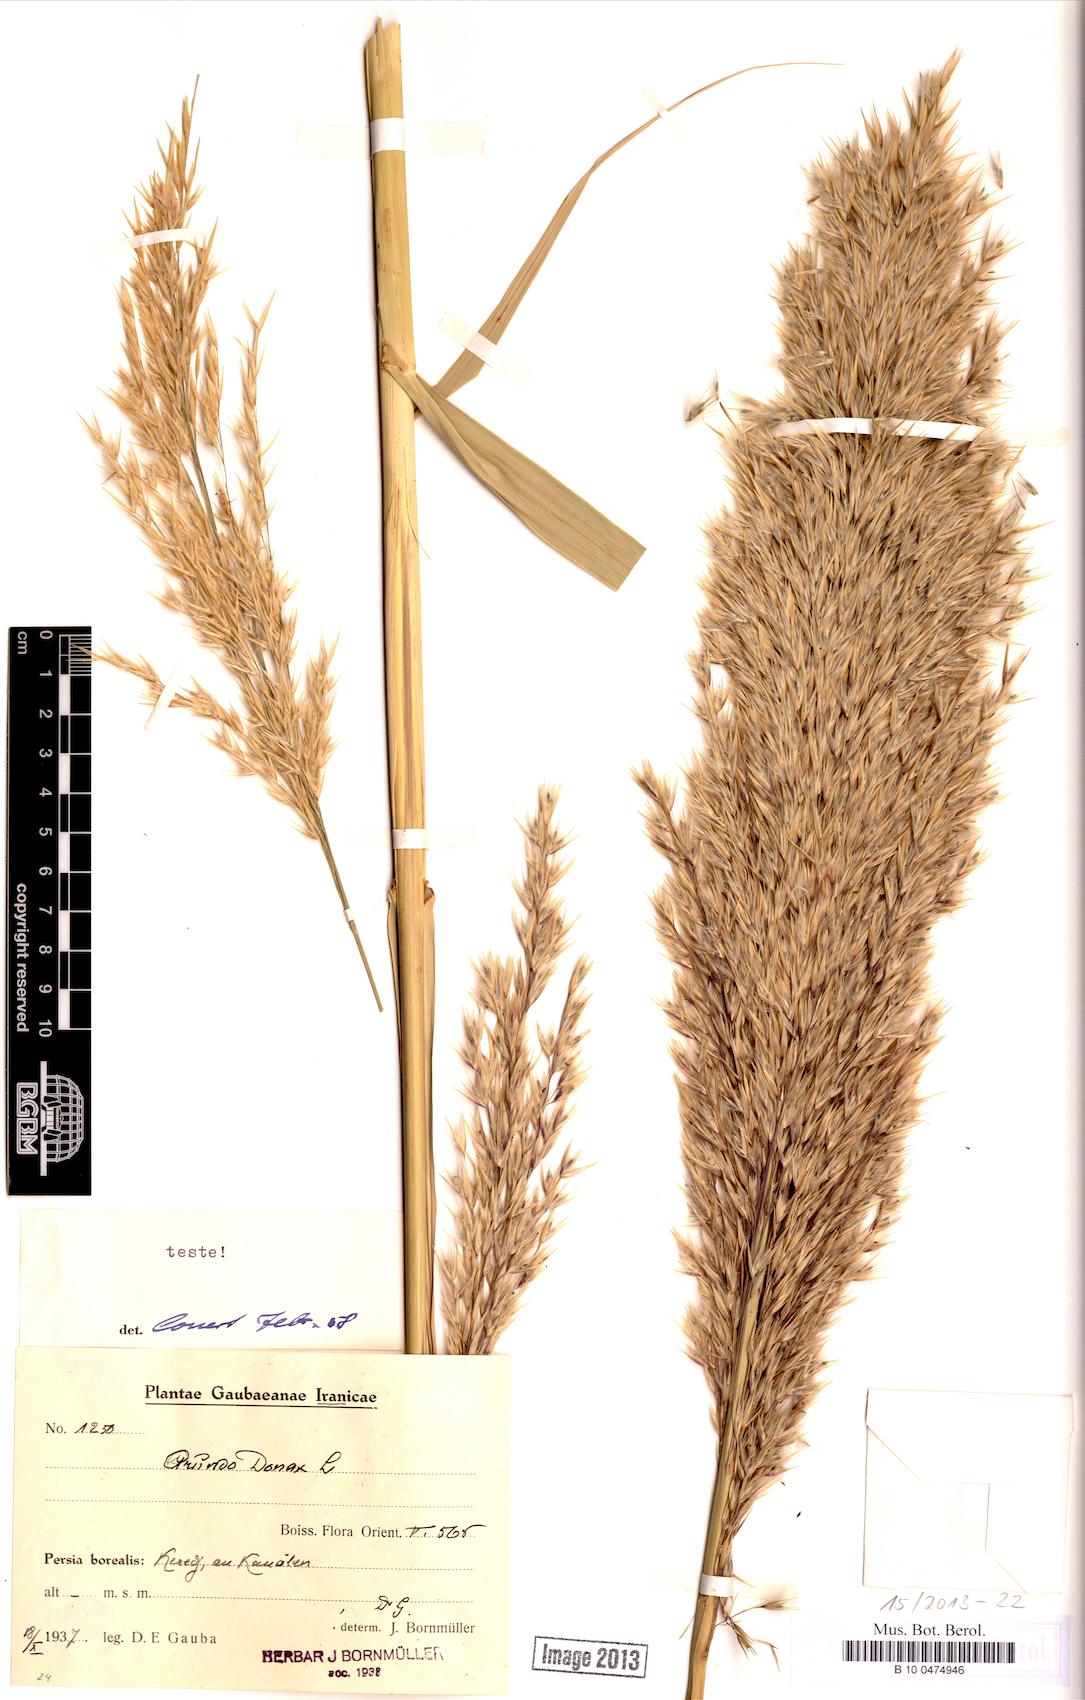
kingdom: Plantae
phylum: Tracheophyta
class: Liliopsida
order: Poales
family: Poaceae
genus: Arundo
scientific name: Arundo donax
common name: Giant reed
